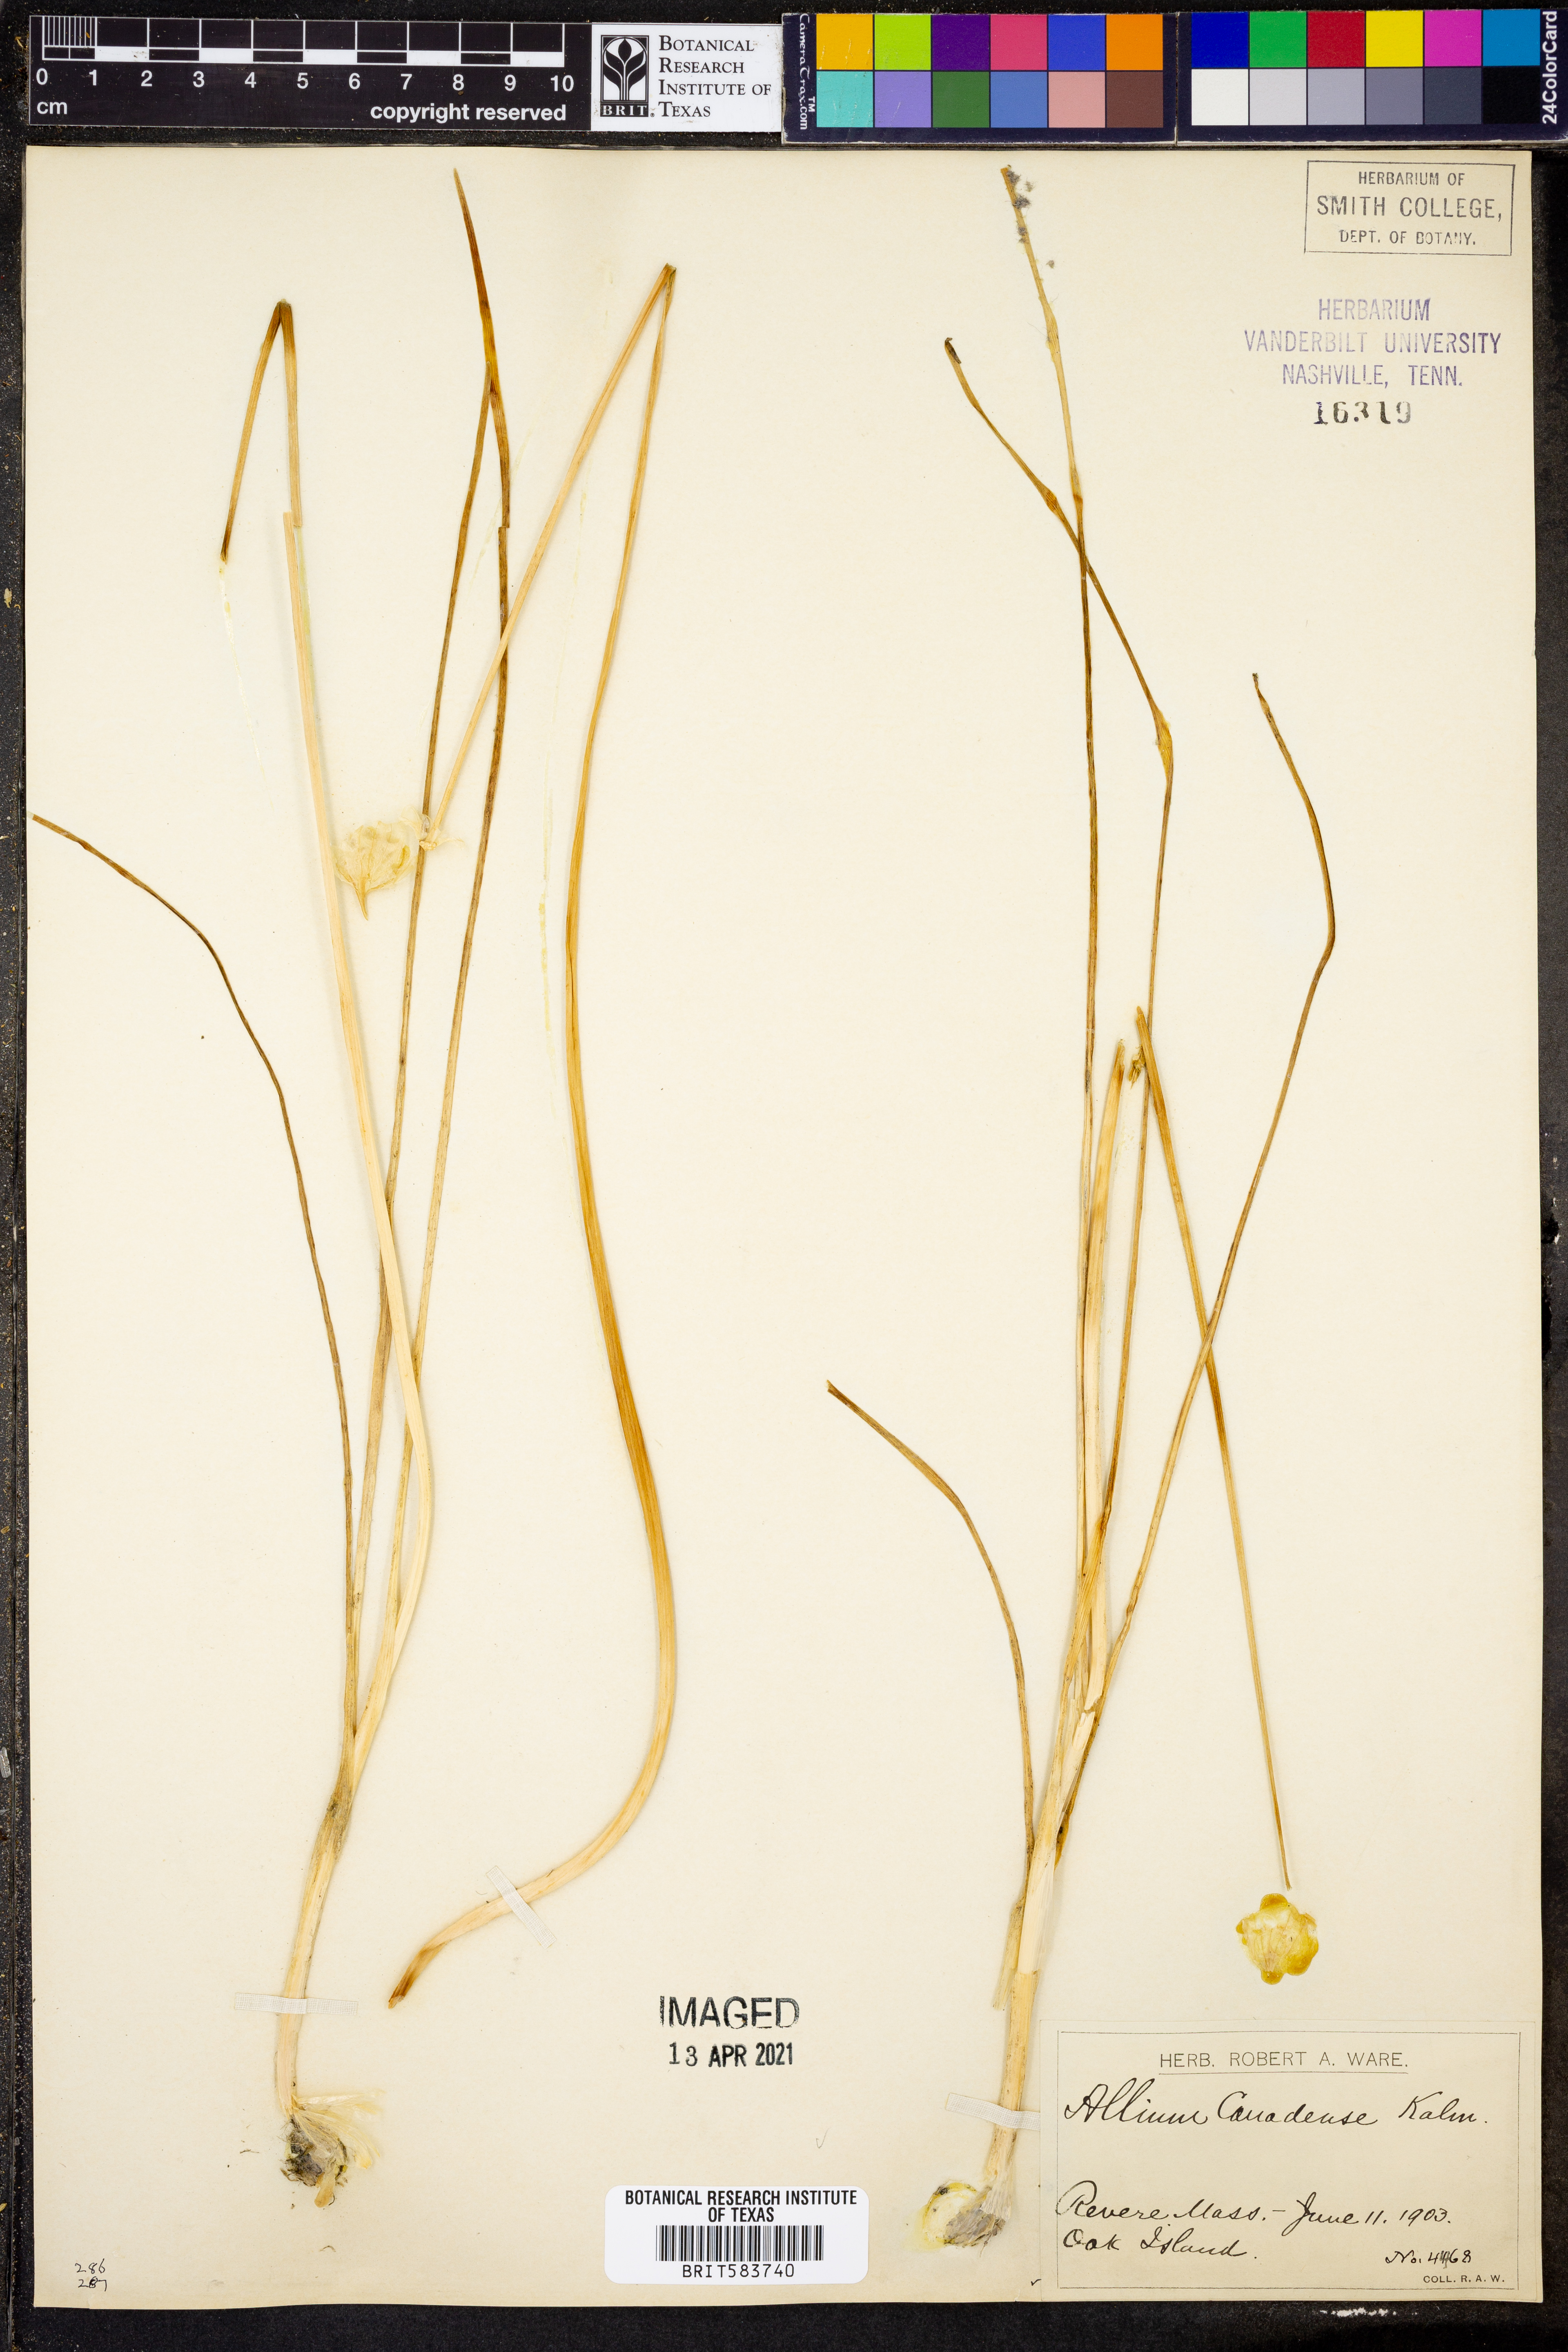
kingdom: Plantae
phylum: Tracheophyta
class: Liliopsida
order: Asparagales
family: Amaryllidaceae
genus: Allium
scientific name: Allium canadense
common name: Meadow garlic
